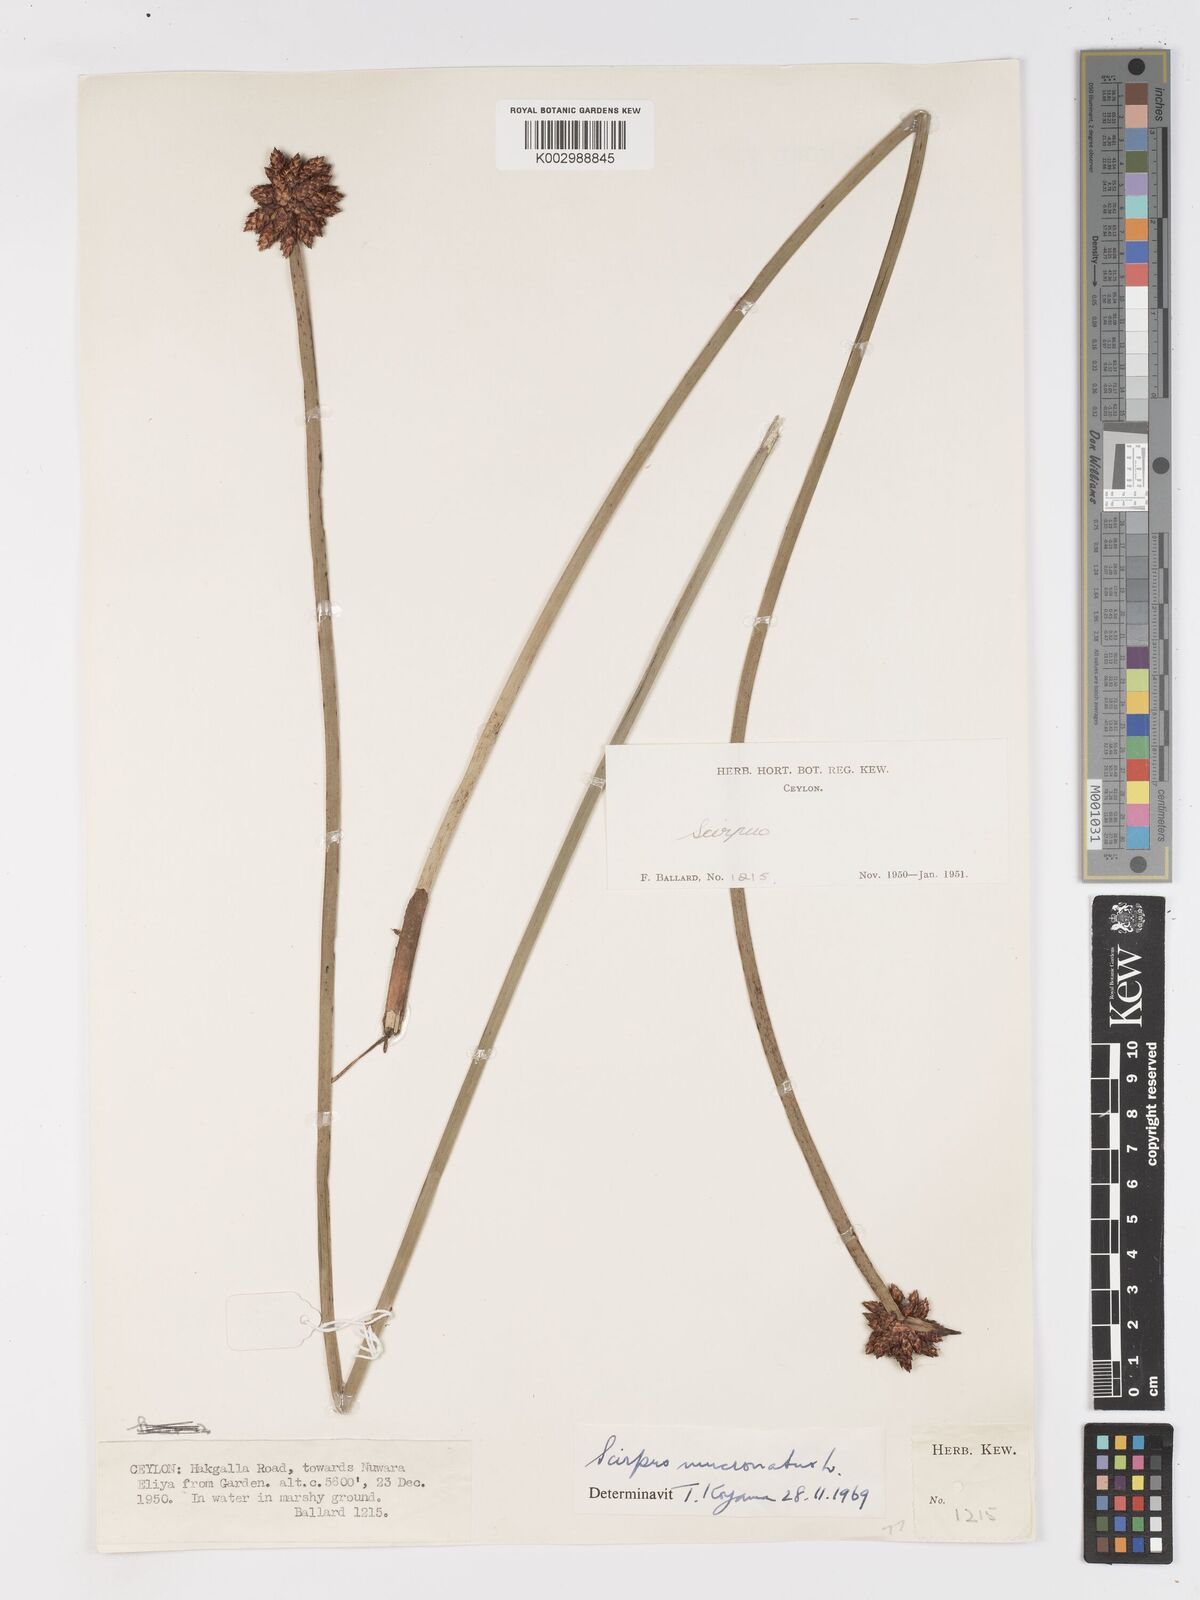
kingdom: Plantae
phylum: Tracheophyta
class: Liliopsida
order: Poales
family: Cyperaceae
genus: Schoenoplectiella
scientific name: Schoenoplectiella mucronata
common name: Bog bulrush
